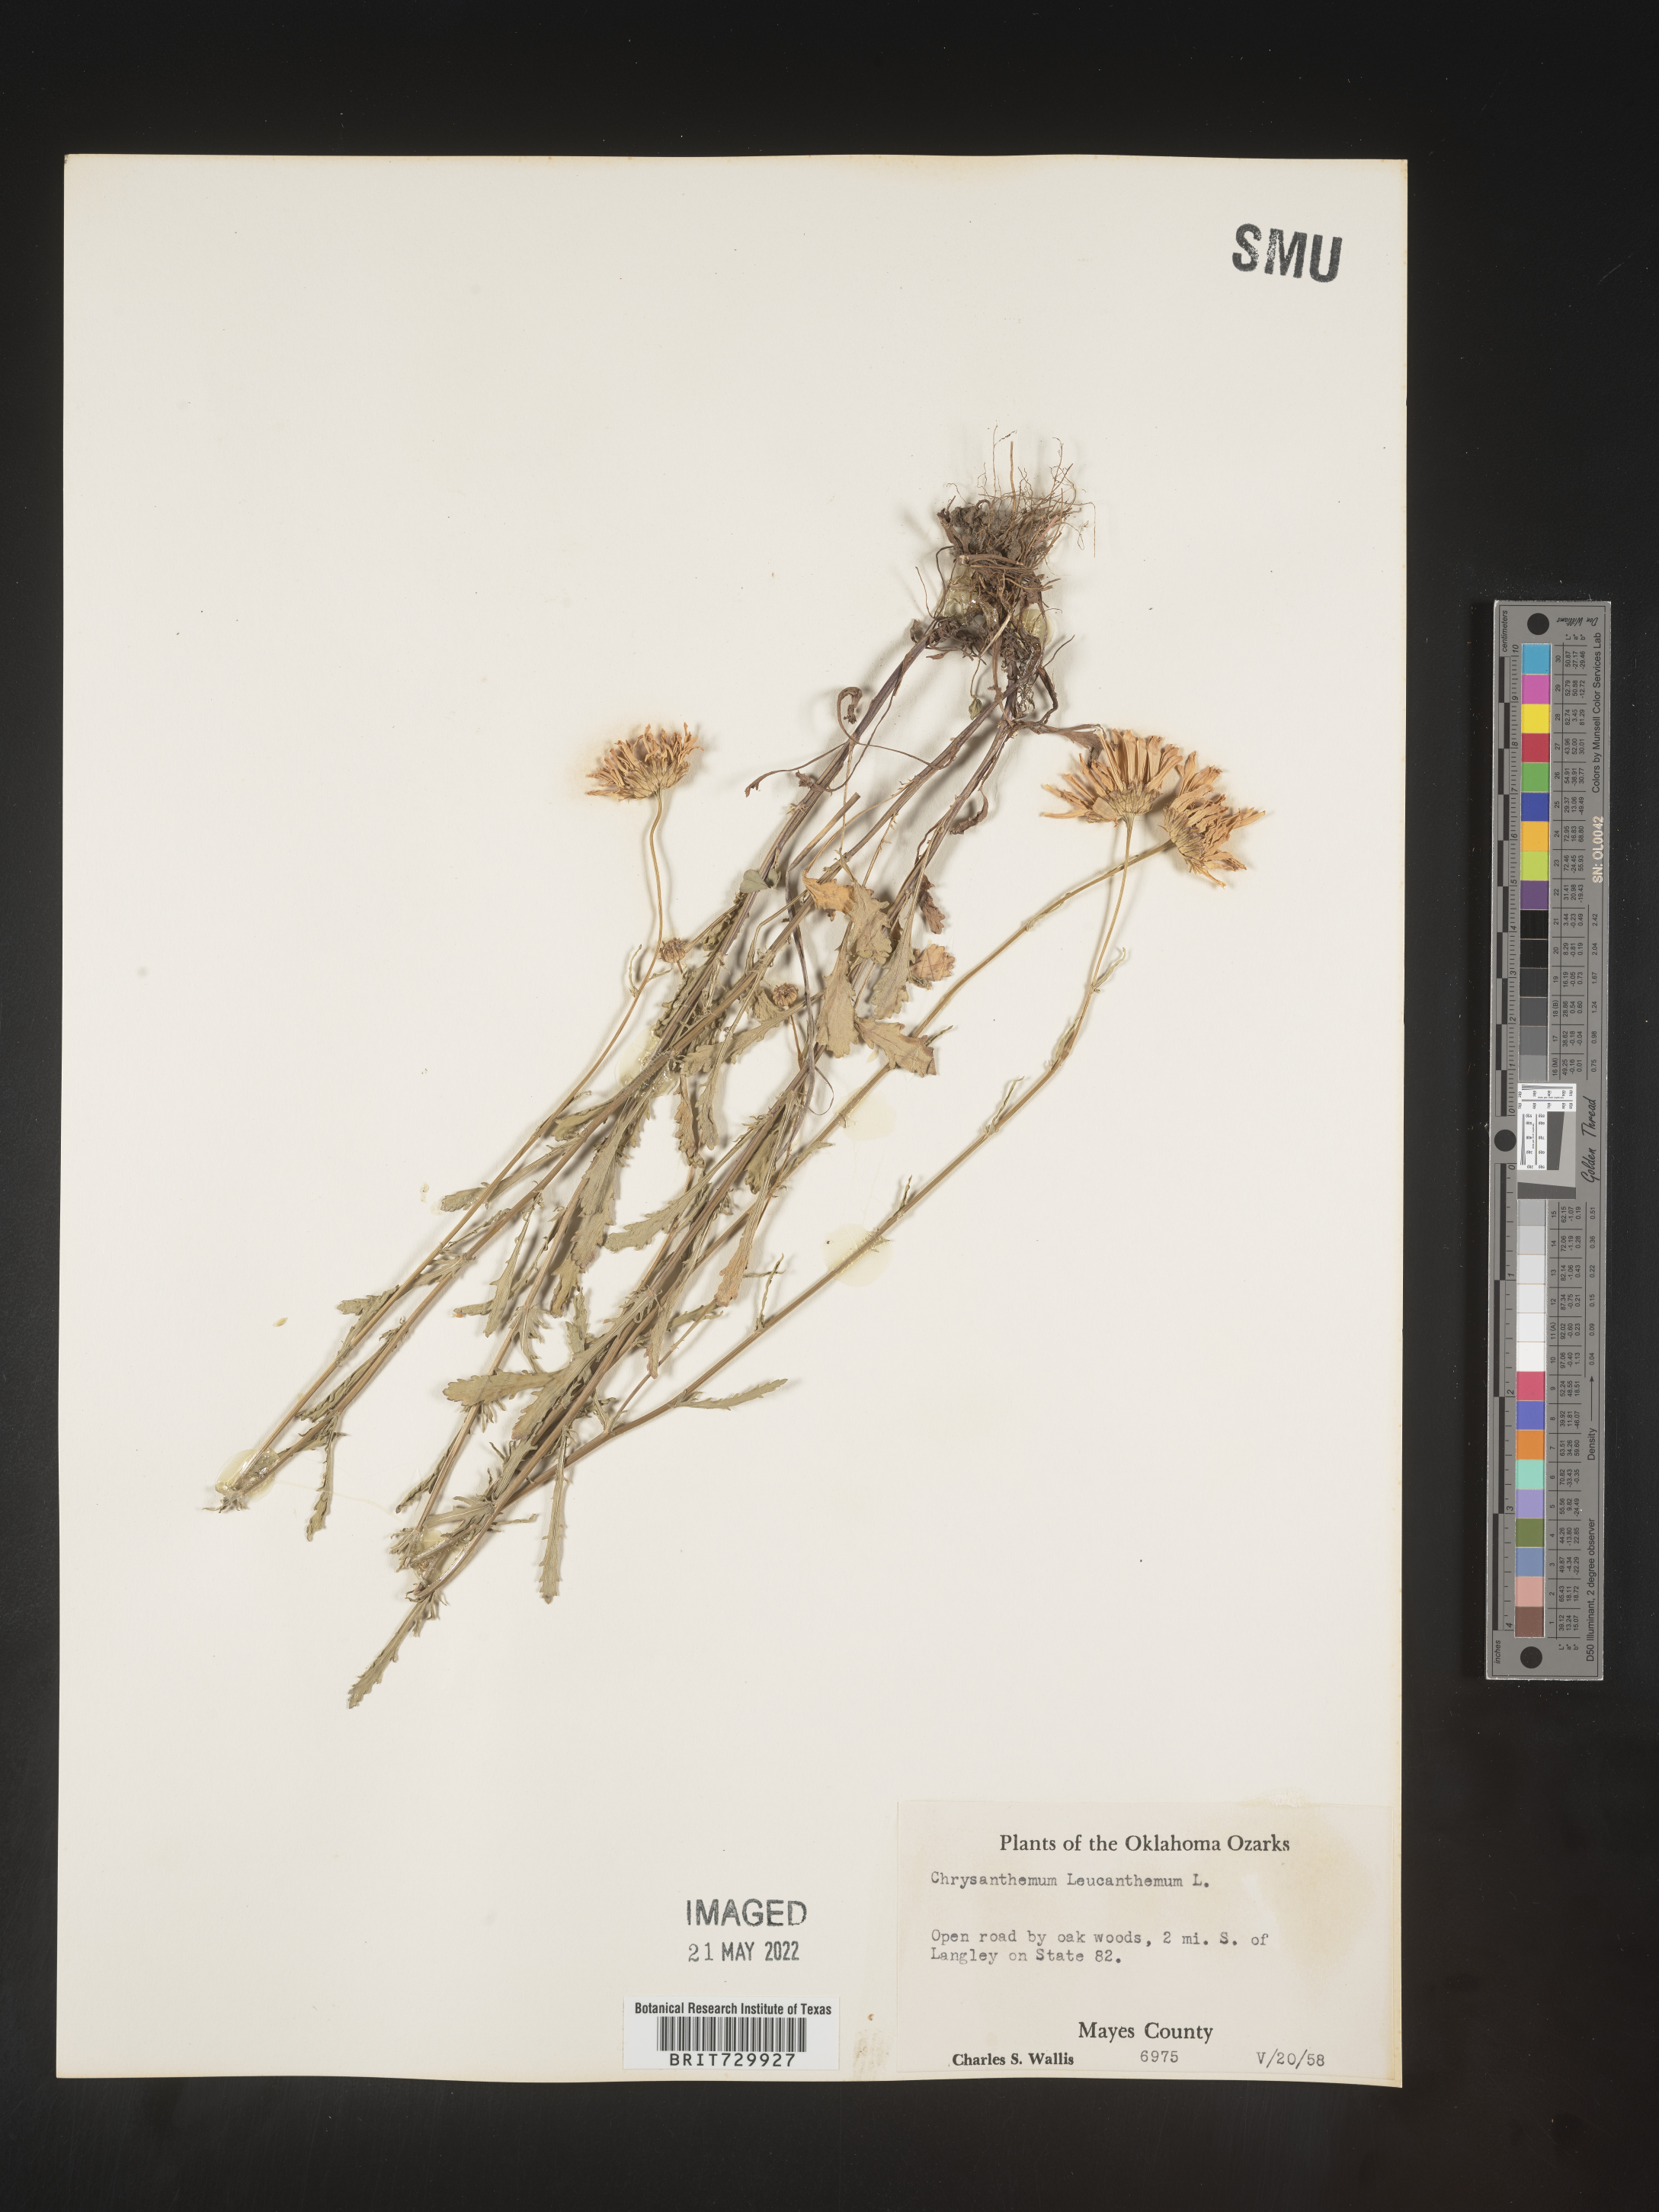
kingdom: Plantae
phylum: Tracheophyta
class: Magnoliopsida
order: Asterales
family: Asteraceae
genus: Leucanthemum
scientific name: Leucanthemum vulgare
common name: Oxeye daisy
